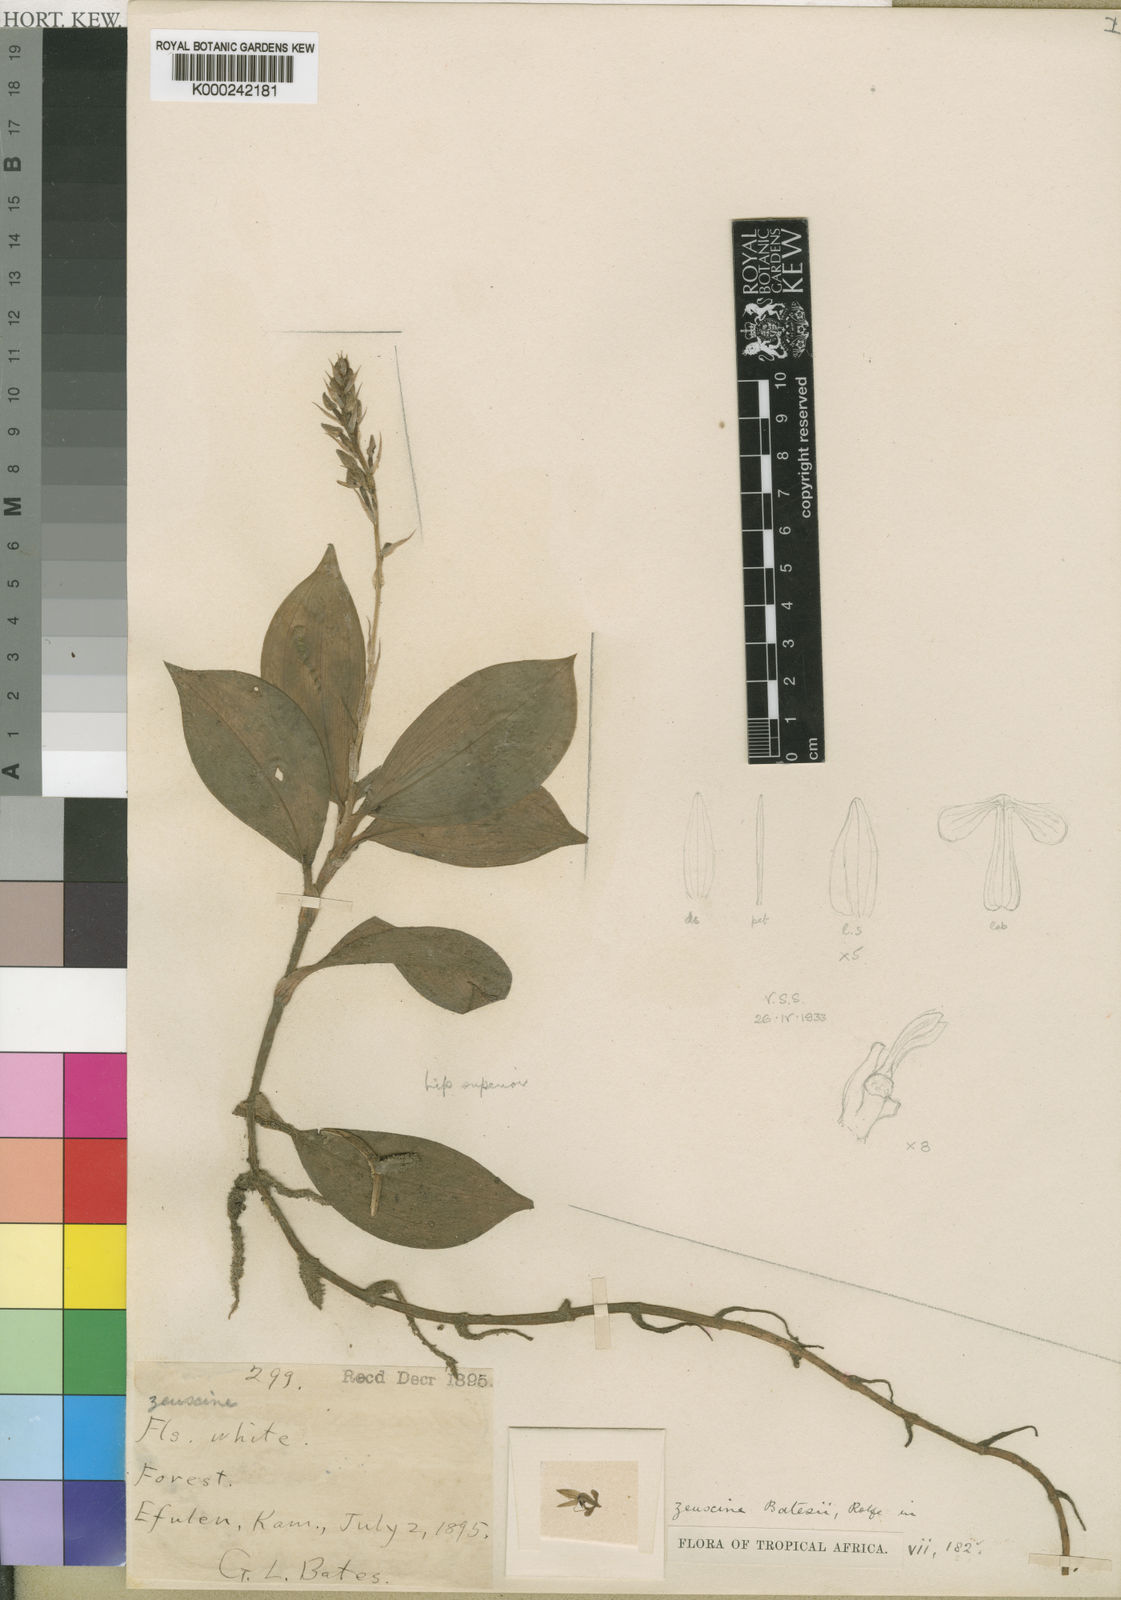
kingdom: Plantae
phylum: Tracheophyta
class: Liliopsida
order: Asparagales
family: Orchidaceae
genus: Hetaeria
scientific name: Hetaeria mannii
